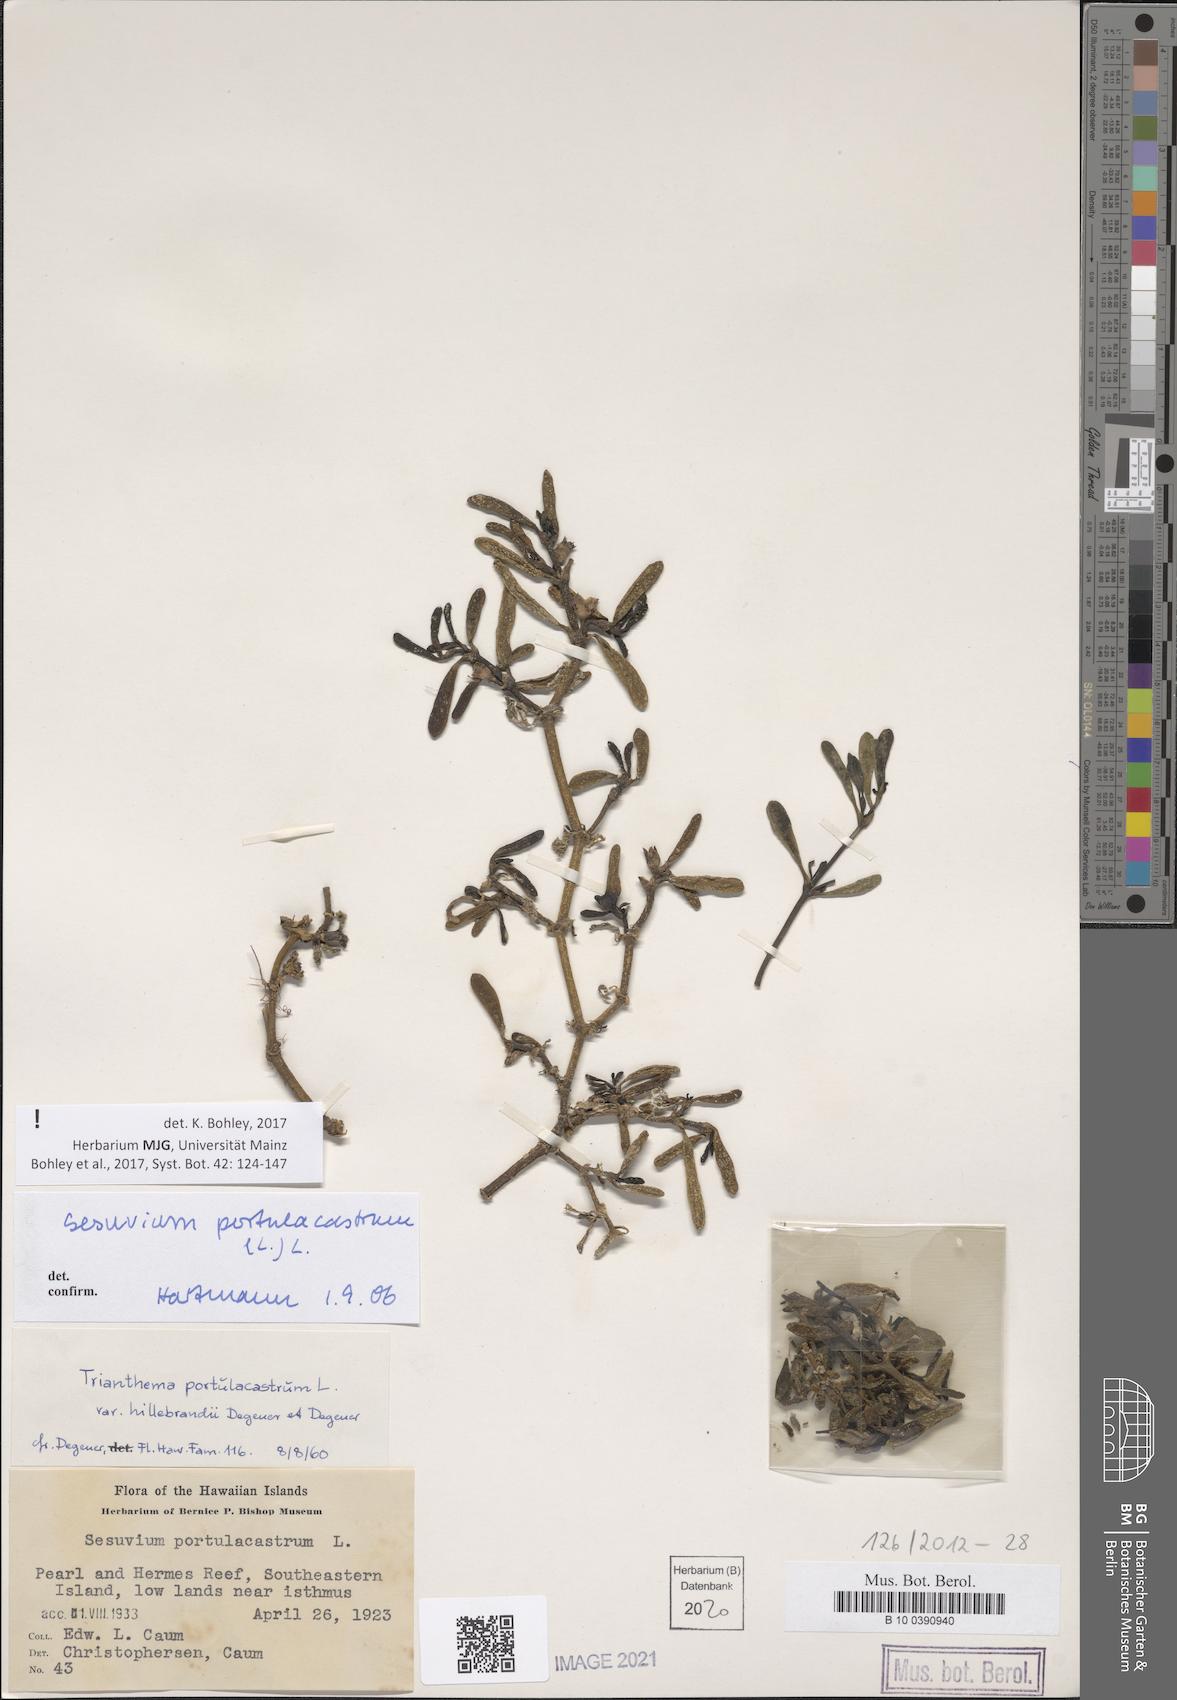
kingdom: Plantae
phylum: Tracheophyta
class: Magnoliopsida
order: Caryophyllales
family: Aizoaceae
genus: Sesuvium
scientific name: Sesuvium portulacastrum
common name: Sea-purslane
